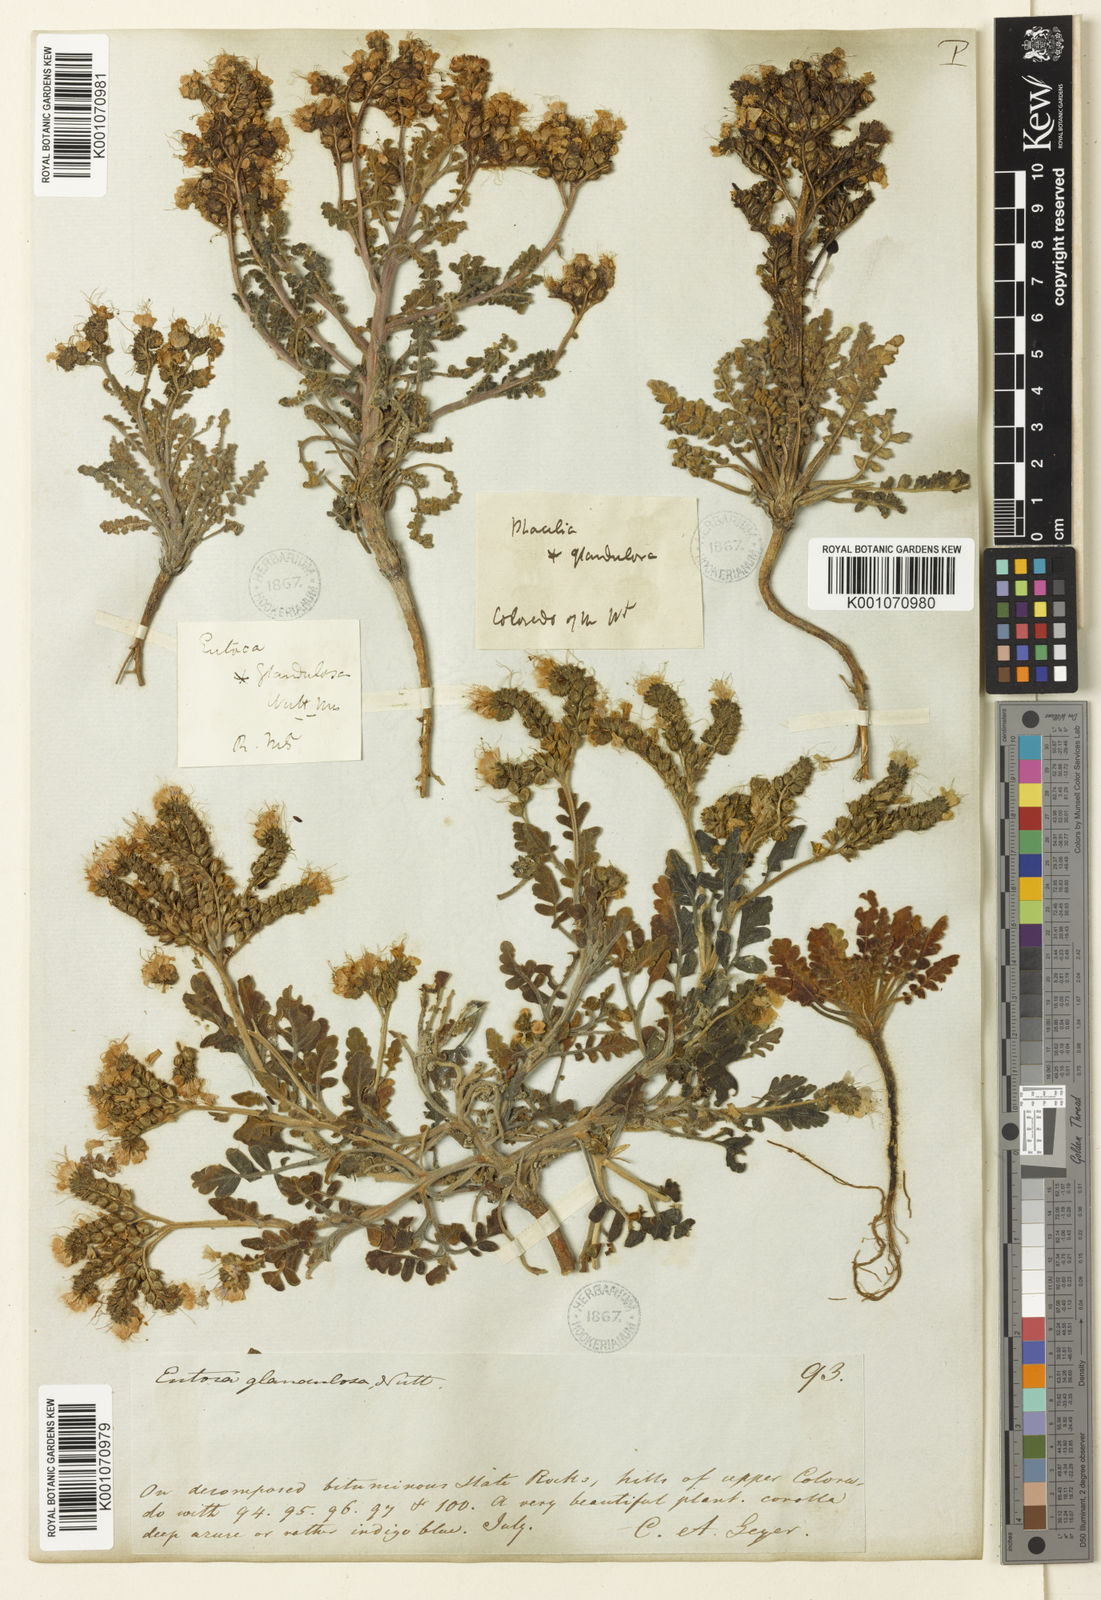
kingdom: Plantae
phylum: Tracheophyta
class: Magnoliopsida
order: Boraginales
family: Hydrophyllaceae
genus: Phacelia
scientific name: Phacelia
